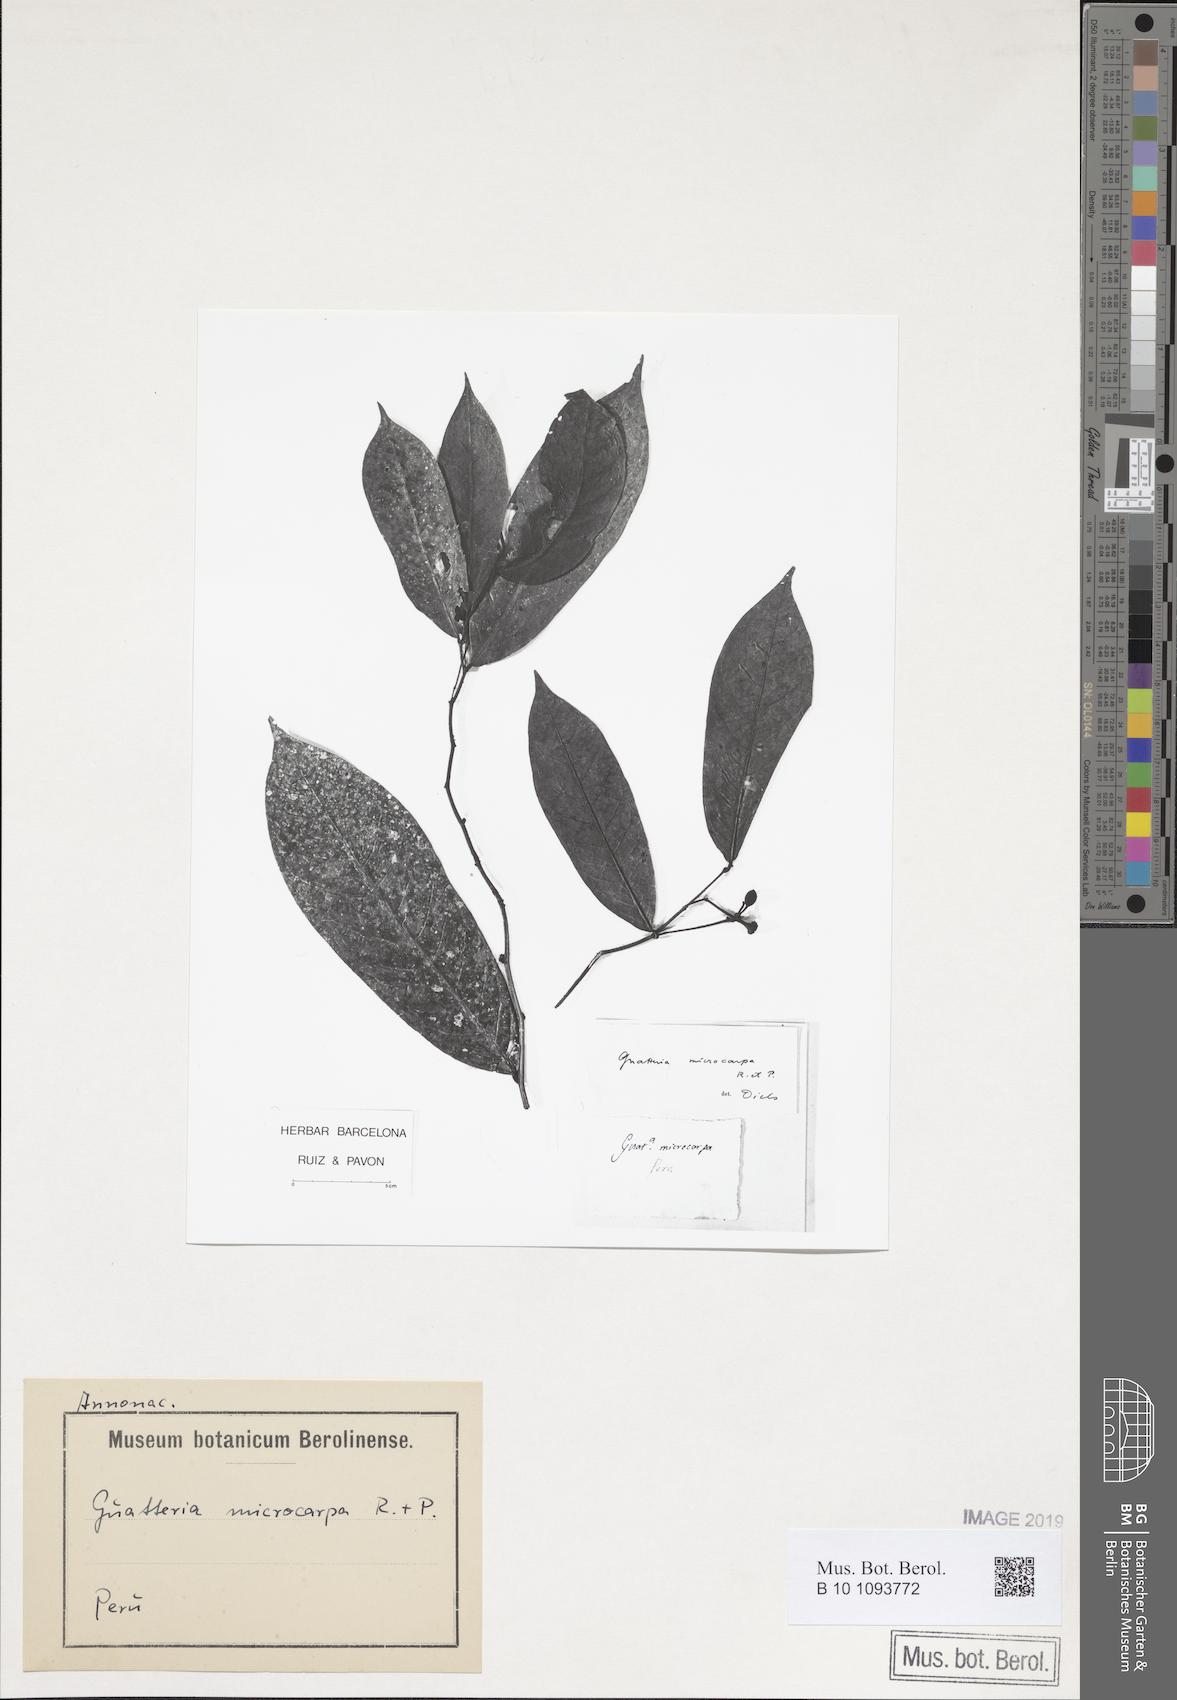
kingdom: Plantae
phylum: Tracheophyta
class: Magnoliopsida
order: Magnoliales
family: Annonaceae
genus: Guatteria
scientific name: Guatteria microcarpa
